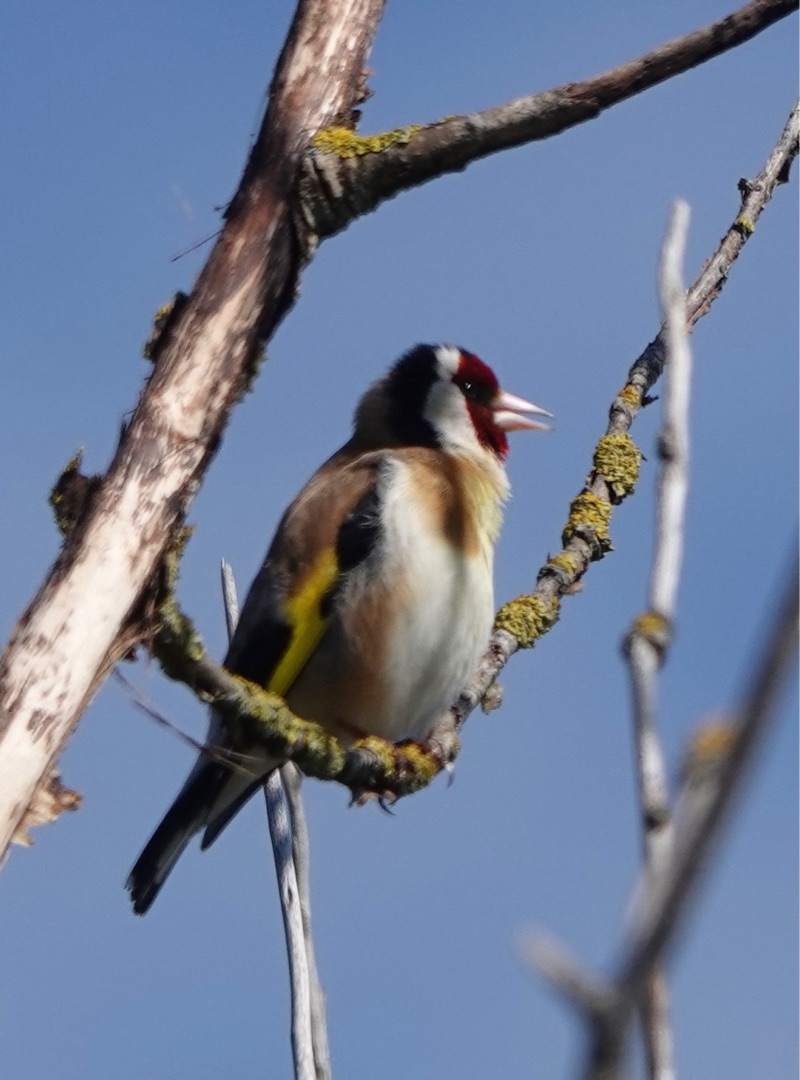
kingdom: Animalia
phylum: Chordata
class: Aves
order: Passeriformes
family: Fringillidae
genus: Carduelis
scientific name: Carduelis carduelis
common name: Stillits
